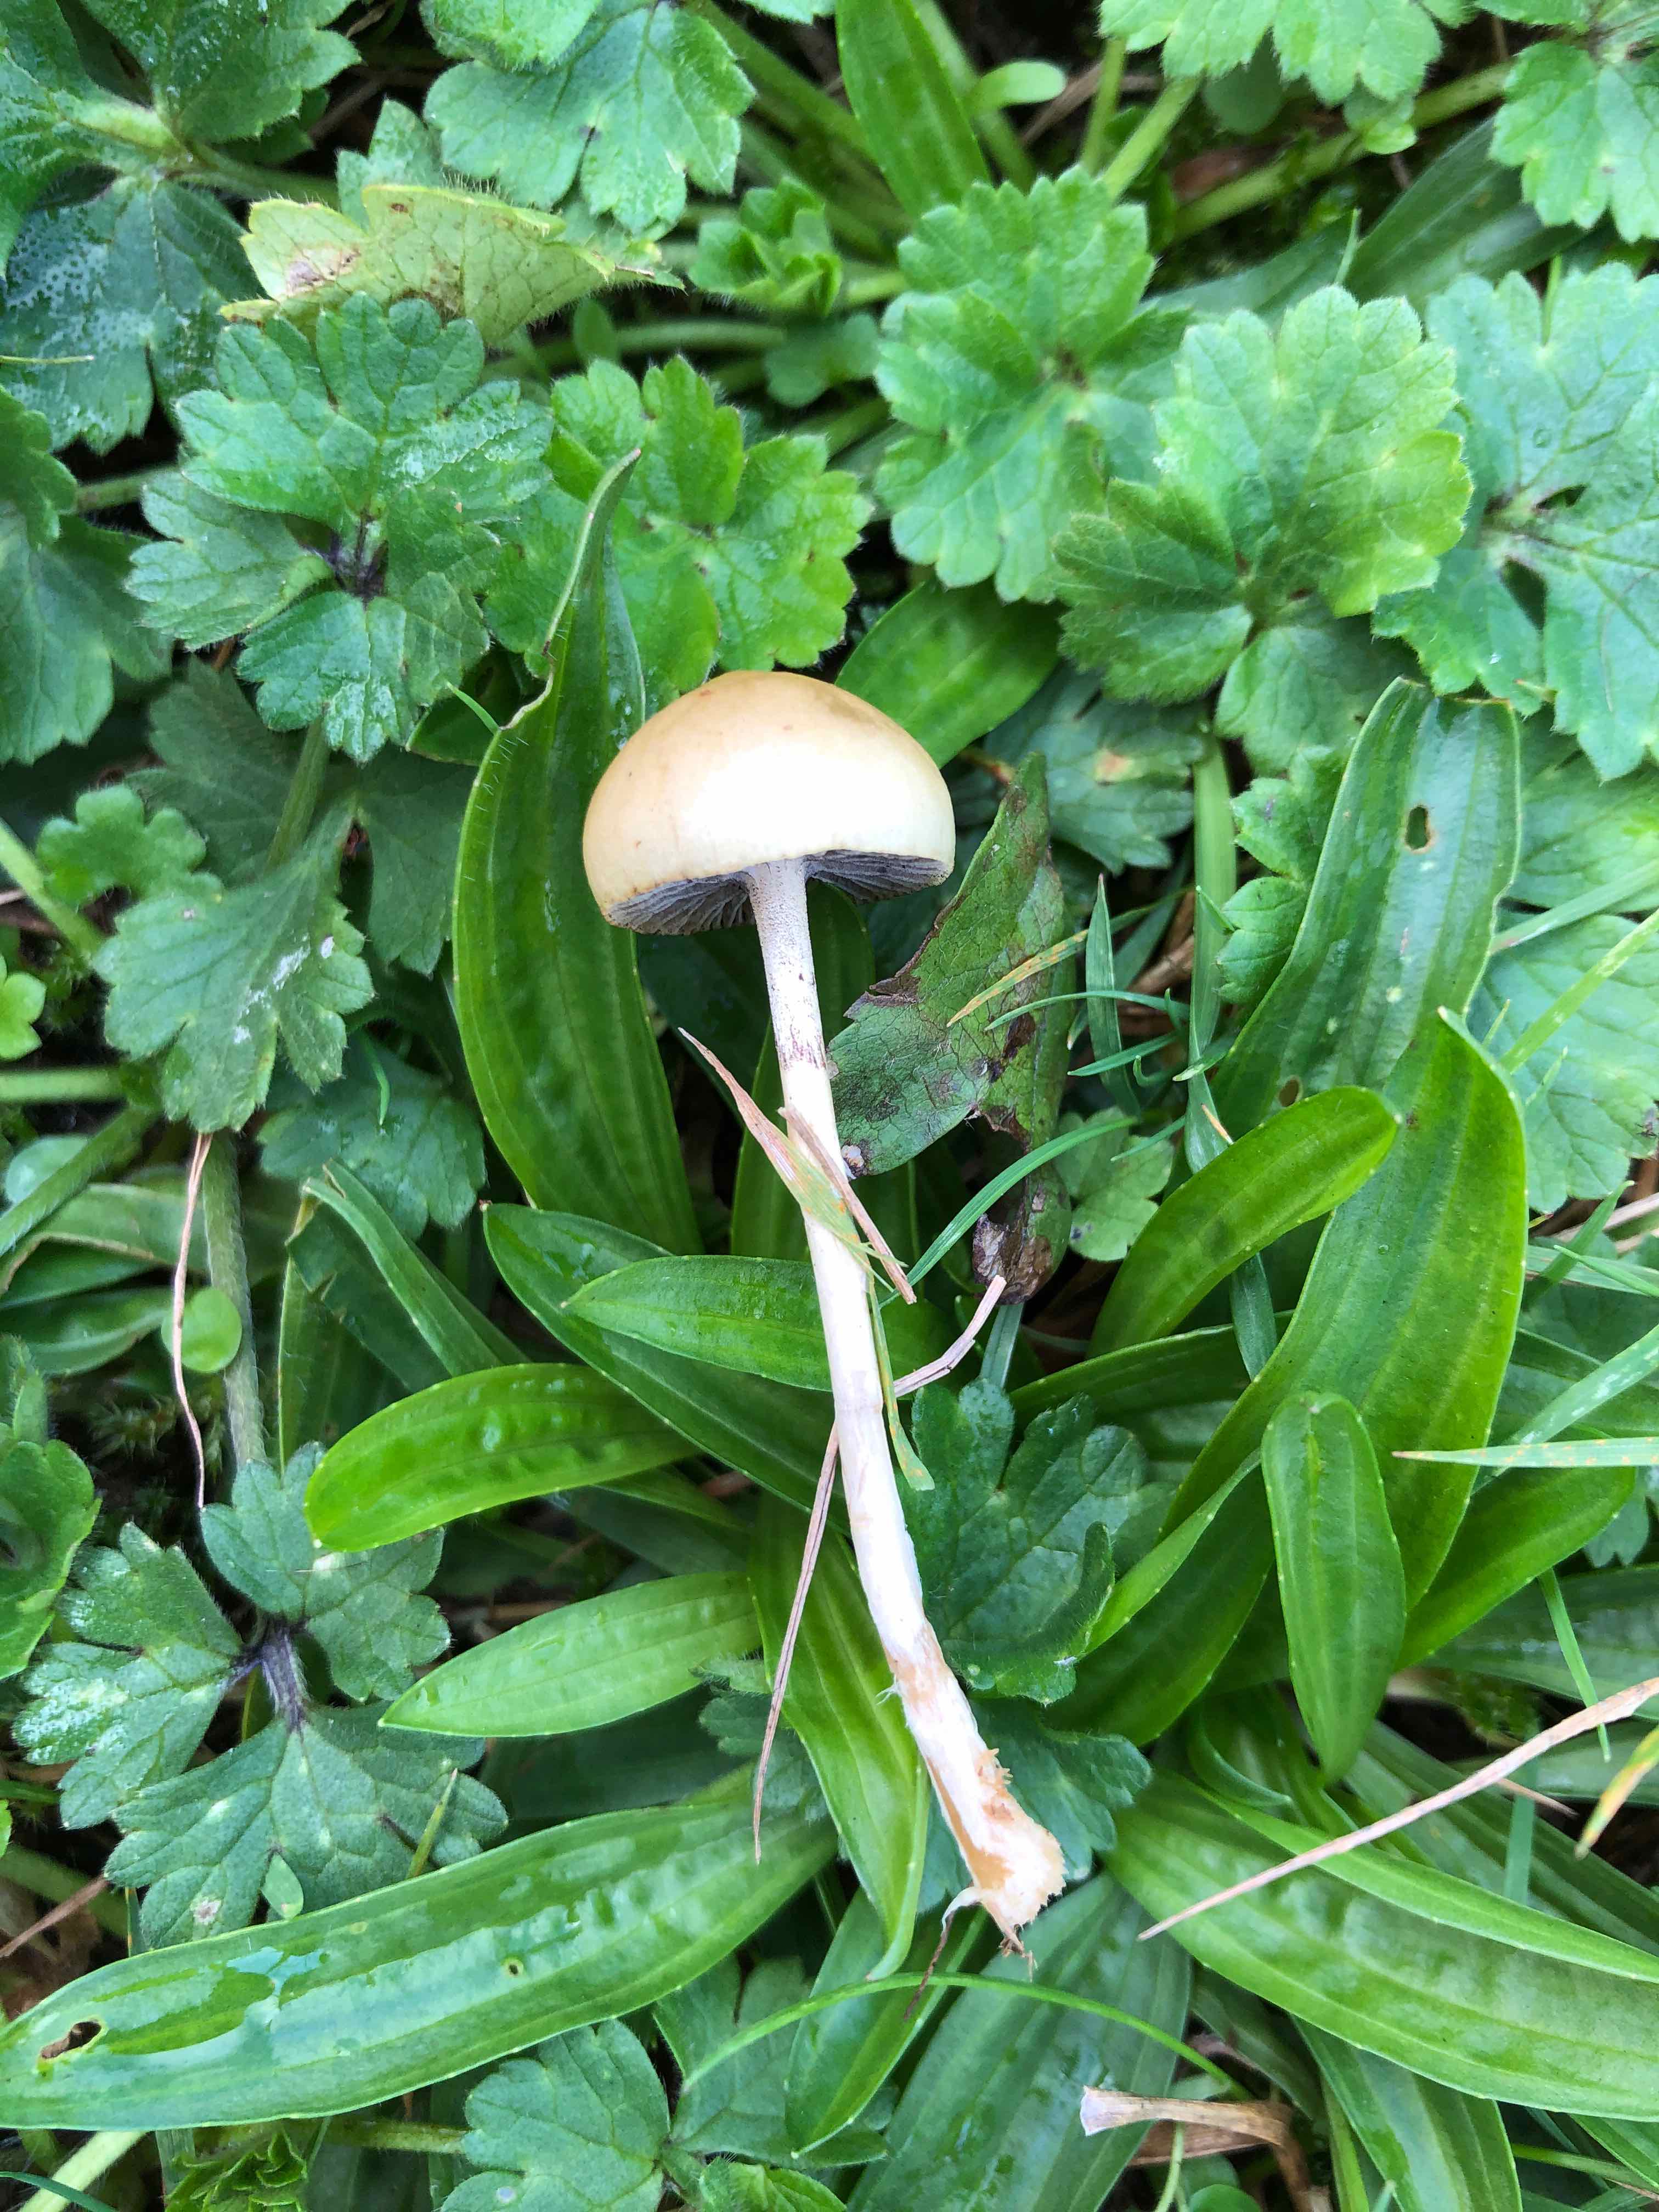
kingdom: Fungi
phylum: Basidiomycota
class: Agaricomycetes
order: Agaricales
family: Strophariaceae
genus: Protostropharia
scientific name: Protostropharia semiglobata
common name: halvkugleformet bredblad
